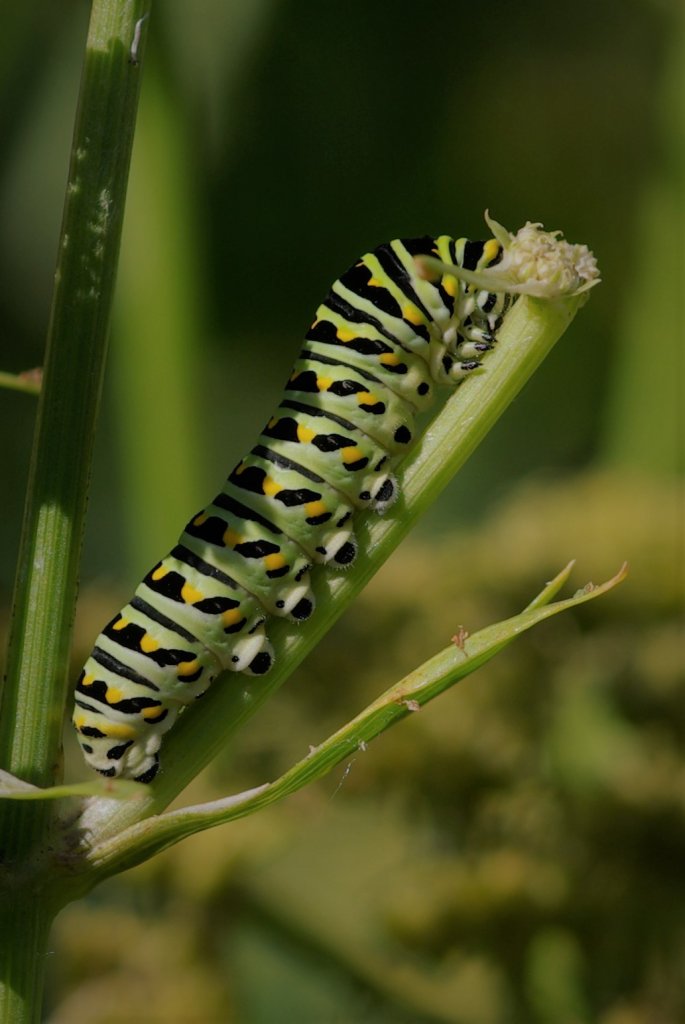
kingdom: Animalia
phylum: Arthropoda
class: Insecta
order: Lepidoptera
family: Papilionidae
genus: Papilio
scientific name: Papilio polyxenes
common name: Black Swallowtail
